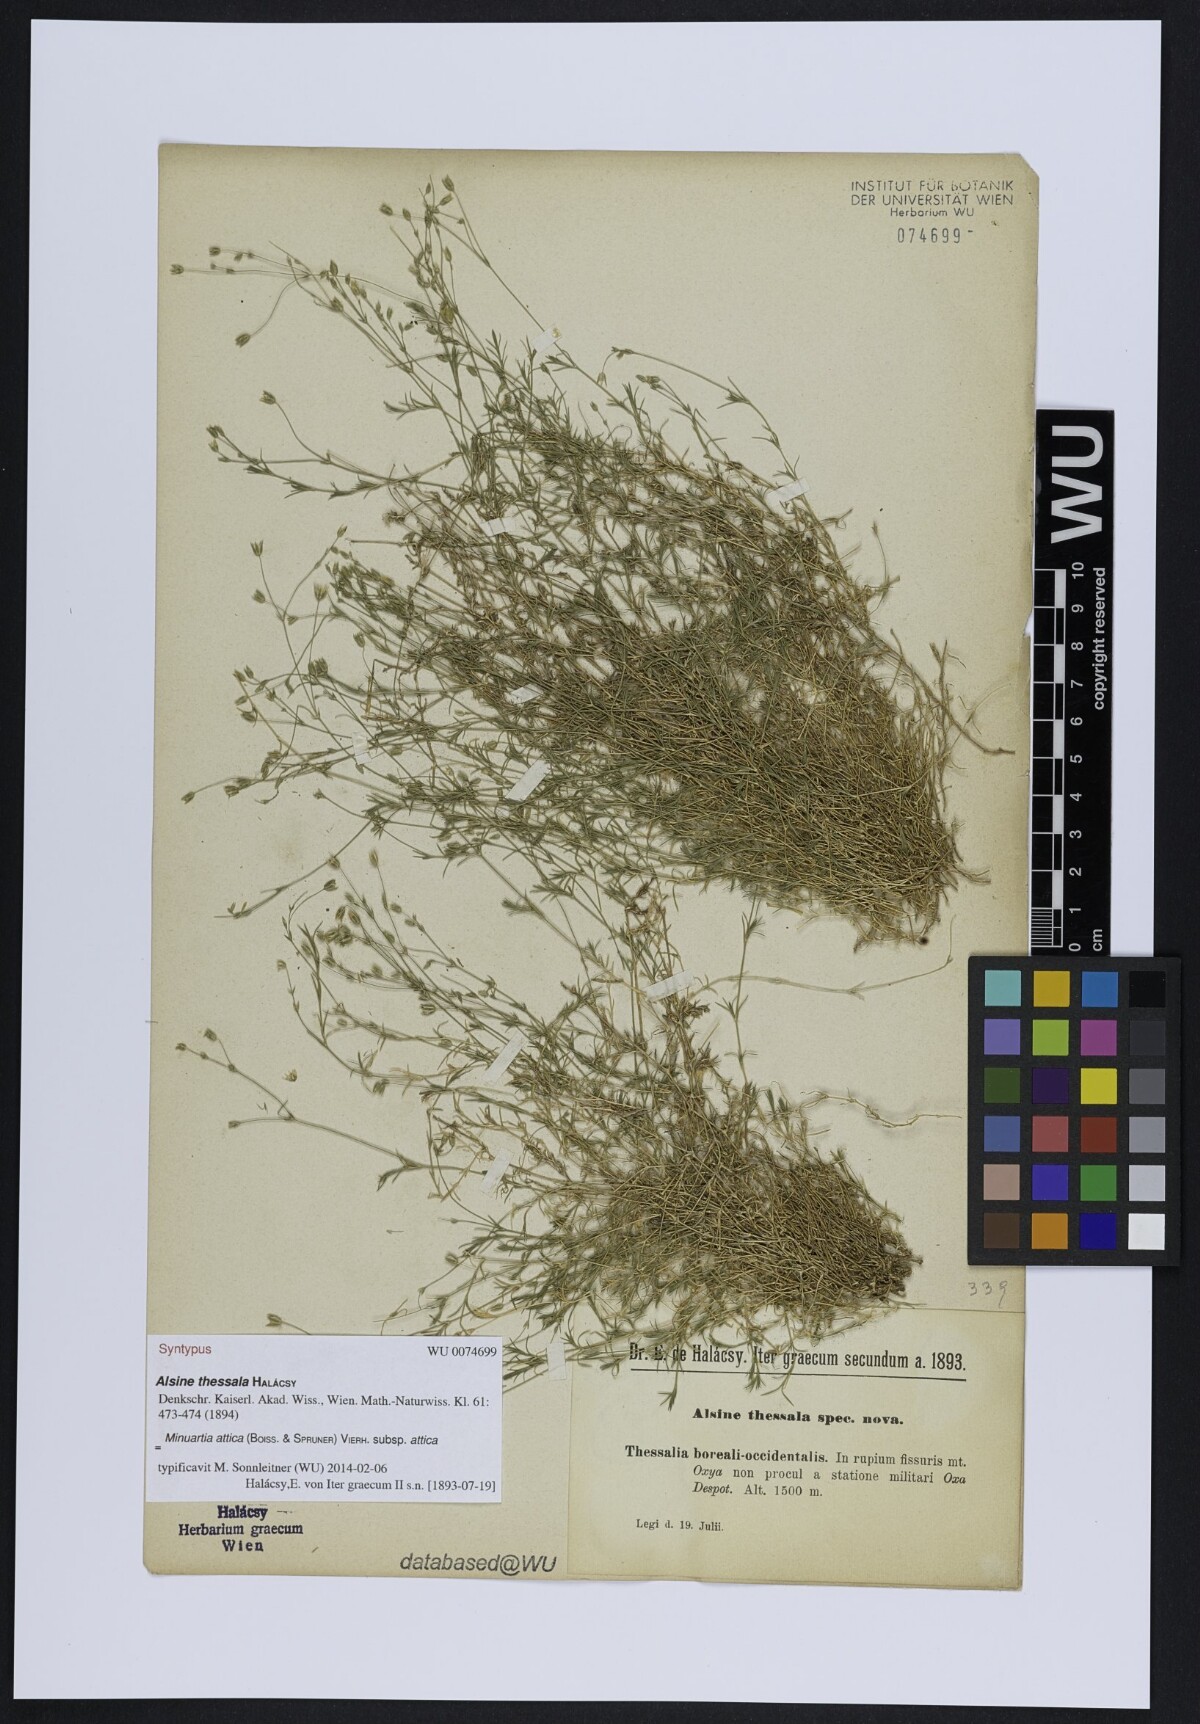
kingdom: Plantae
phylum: Tracheophyta
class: Magnoliopsida
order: Caryophyllales
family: Caryophyllaceae
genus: Sabulina
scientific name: Sabulina attica
